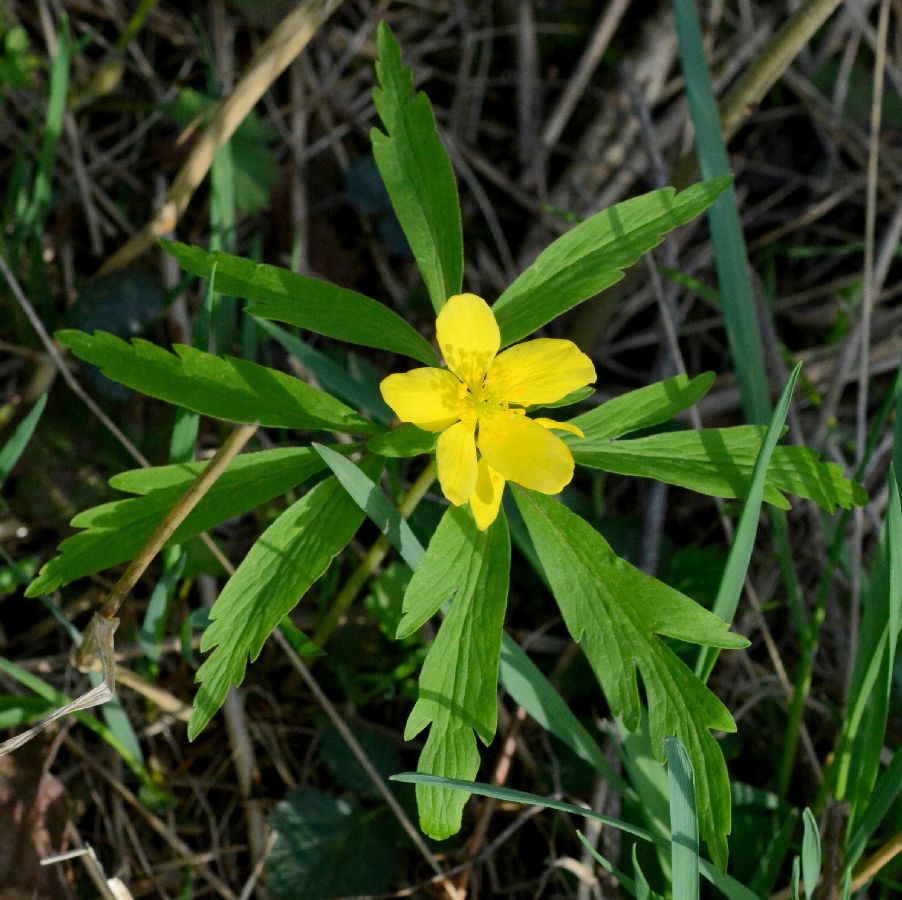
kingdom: Plantae
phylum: Tracheophyta
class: Magnoliopsida
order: Ranunculales
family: Ranunculaceae
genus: Anemone
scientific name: Anemone ranunculoides
